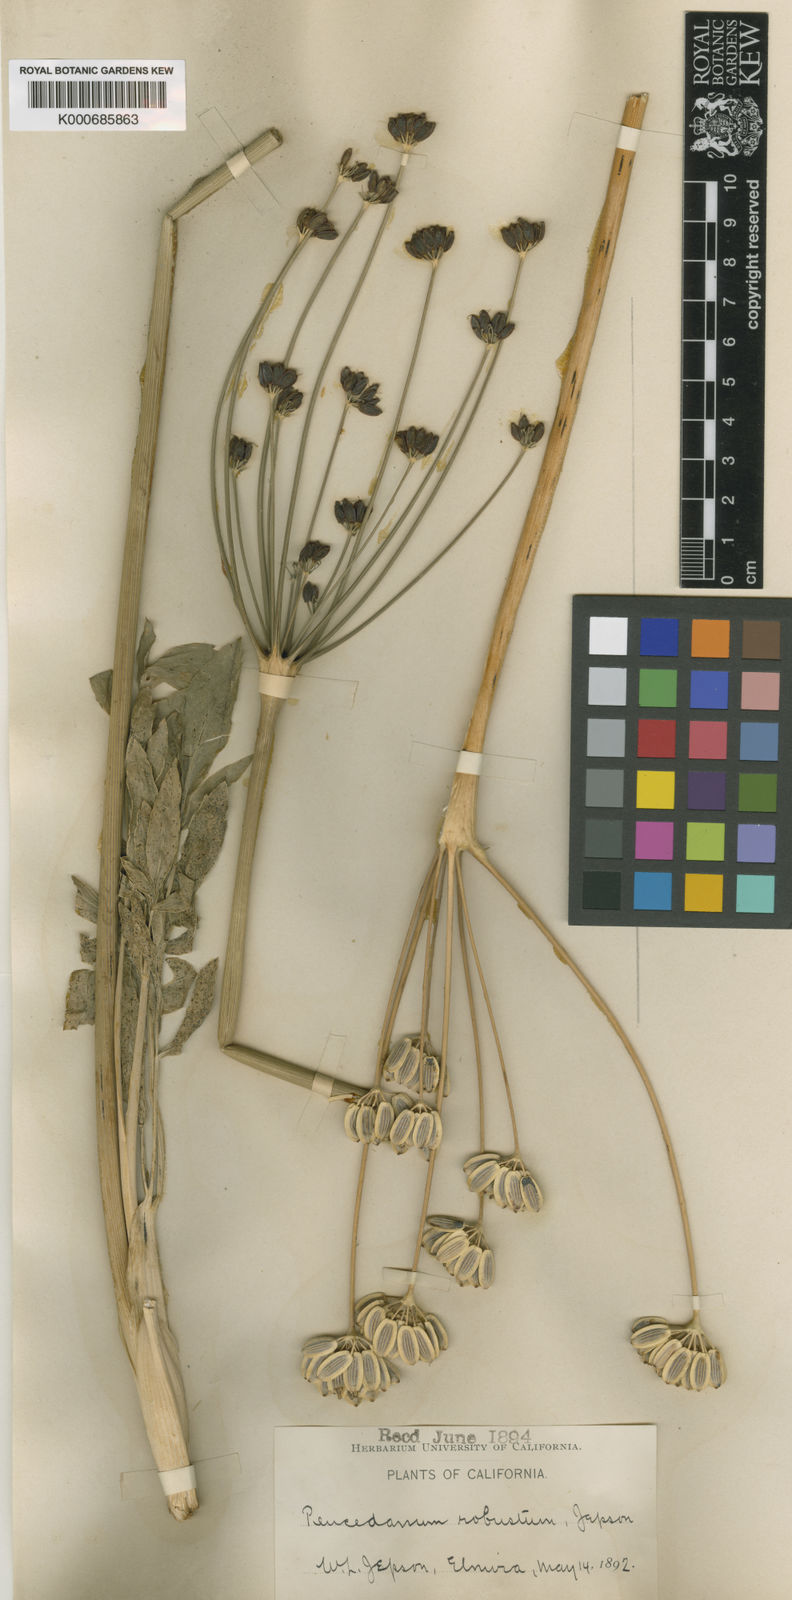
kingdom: Plantae
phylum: Tracheophyta
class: Magnoliopsida
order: Apiales
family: Apiaceae
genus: Lomatium
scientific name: Lomatium nudicaule
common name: Pestle lomatium
